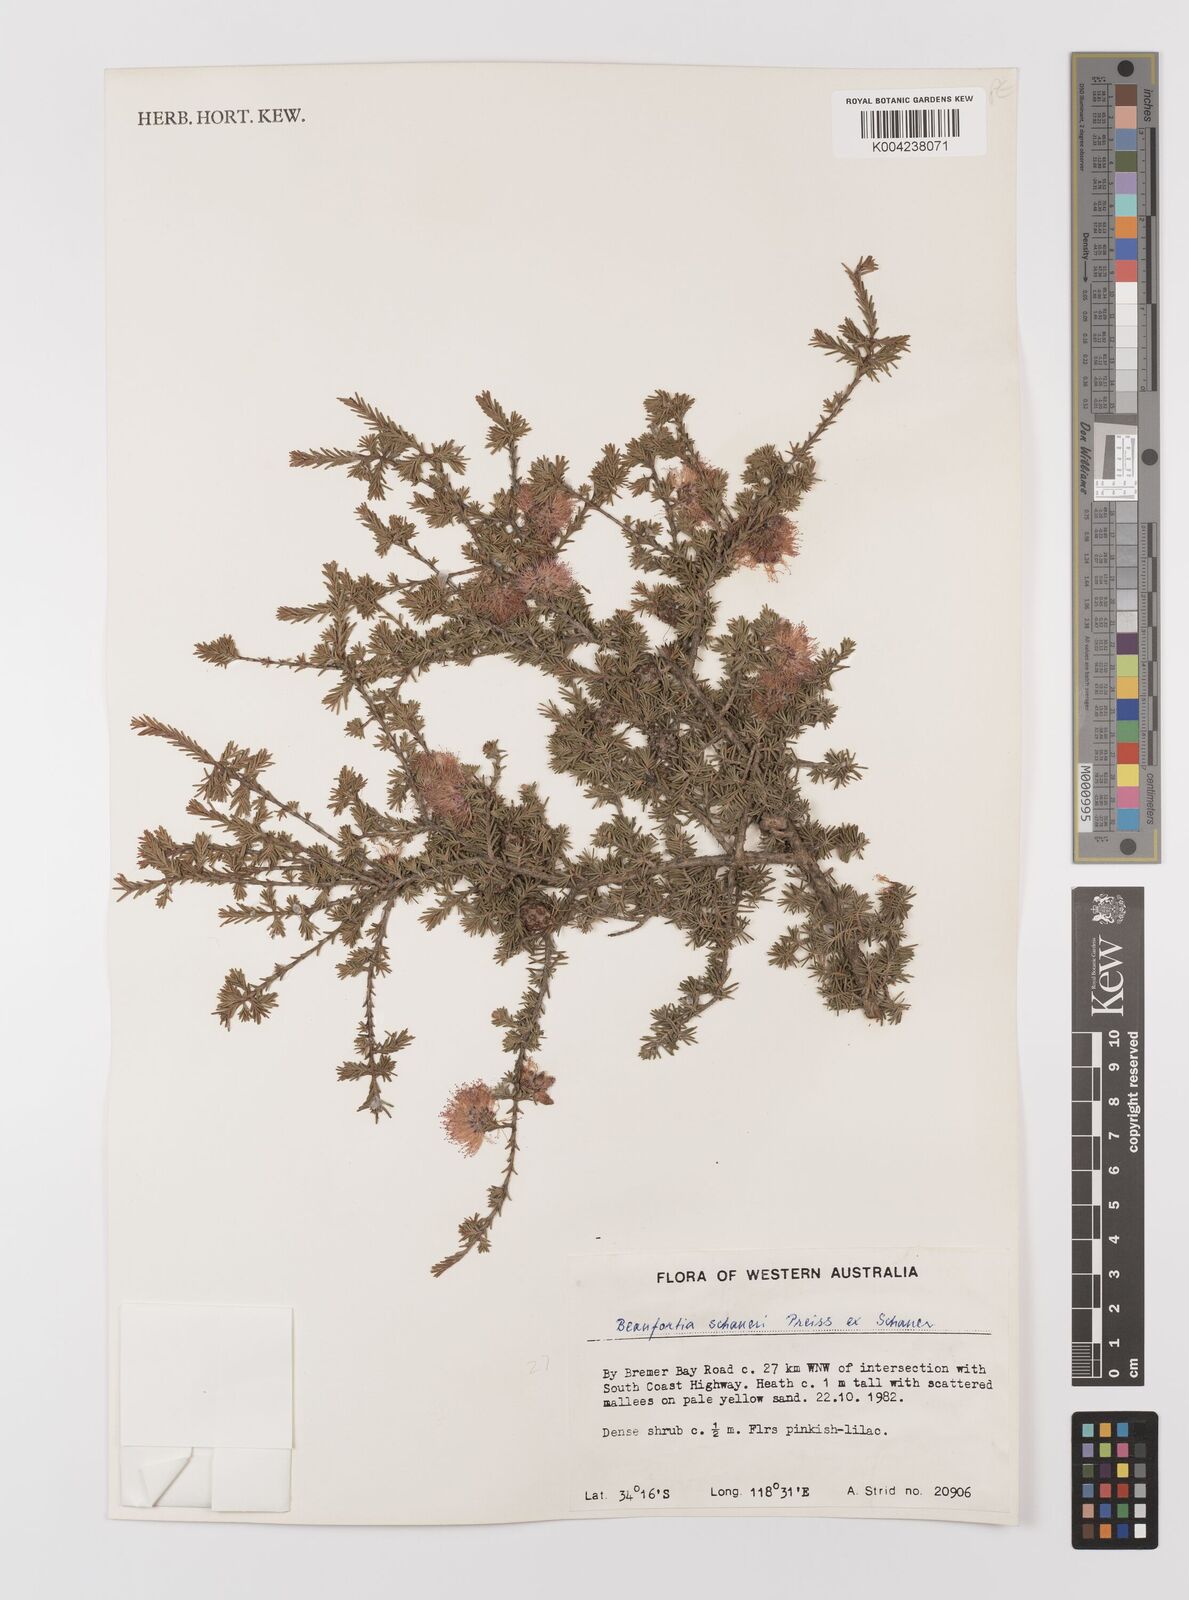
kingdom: Plantae
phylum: Tracheophyta
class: Magnoliopsida
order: Myrtales
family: Myrtaceae
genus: Melaleuca
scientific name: Melaleuca jonesii
